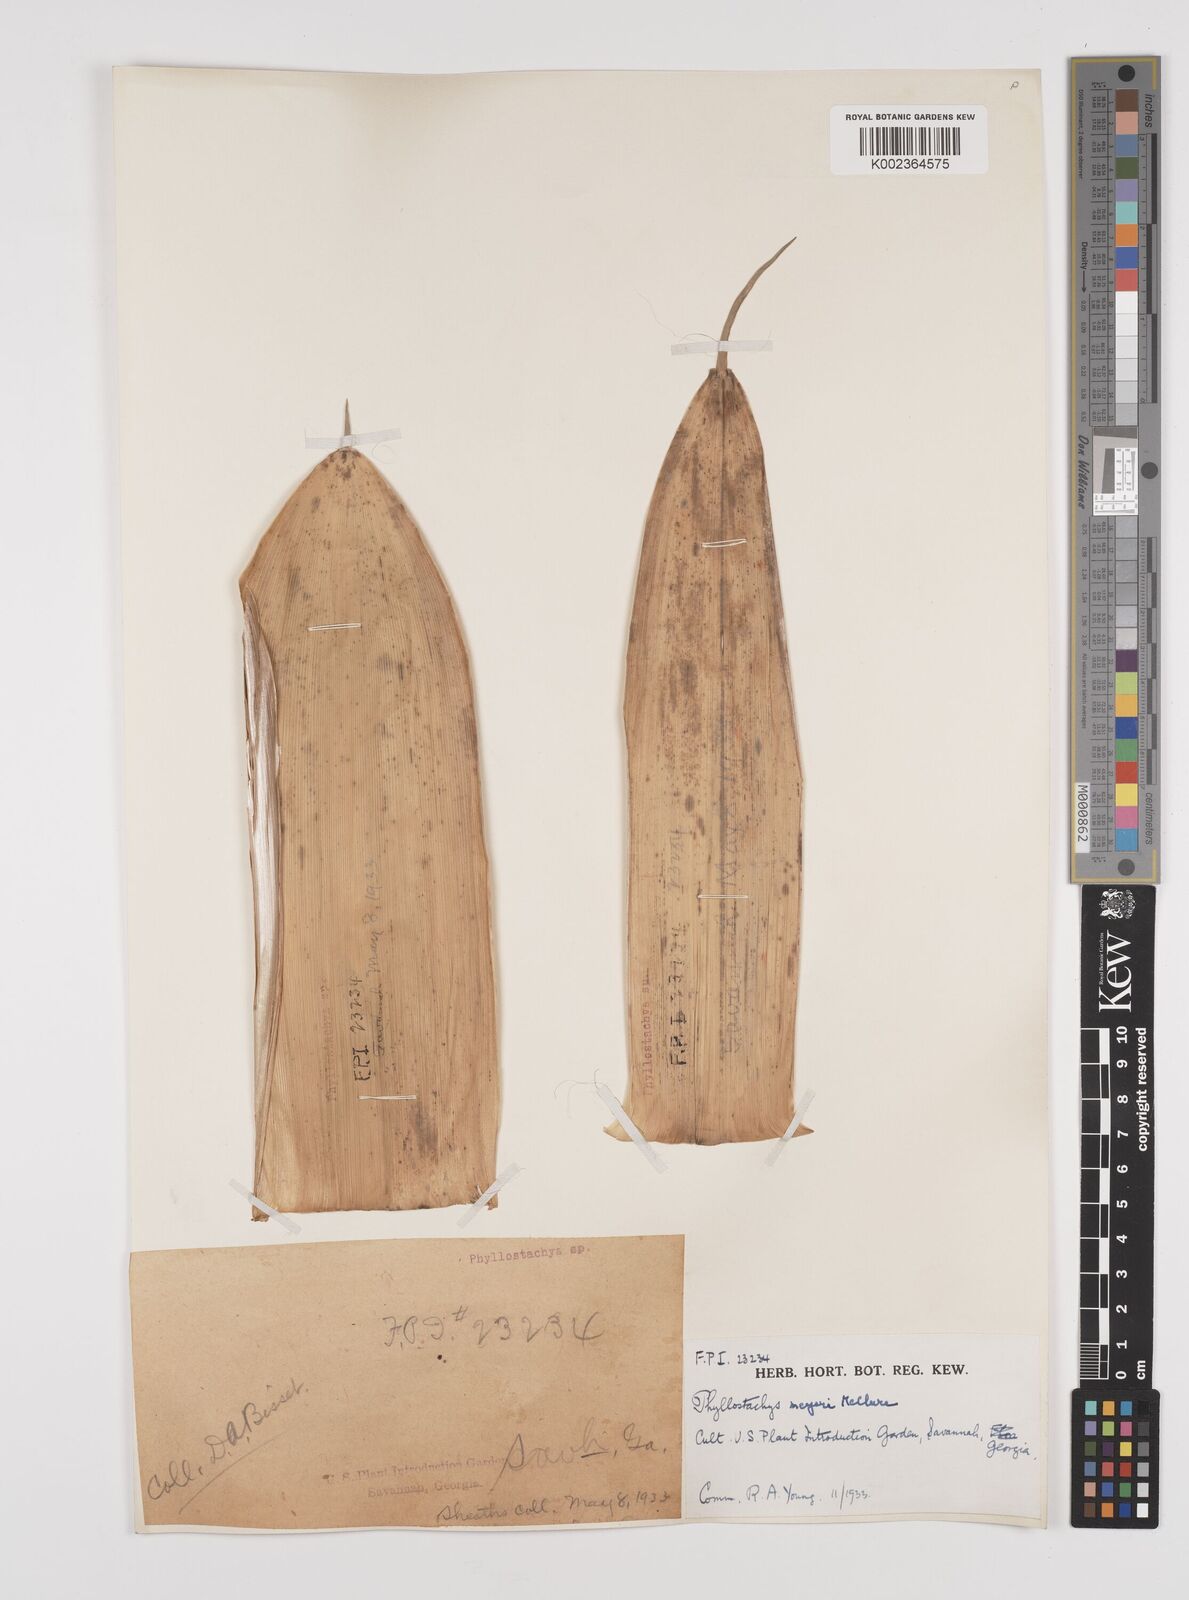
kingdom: Plantae
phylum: Tracheophyta
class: Liliopsida
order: Poales
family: Poaceae
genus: Phyllostachys
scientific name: Phyllostachys meyeri
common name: Meyer's bamboo
